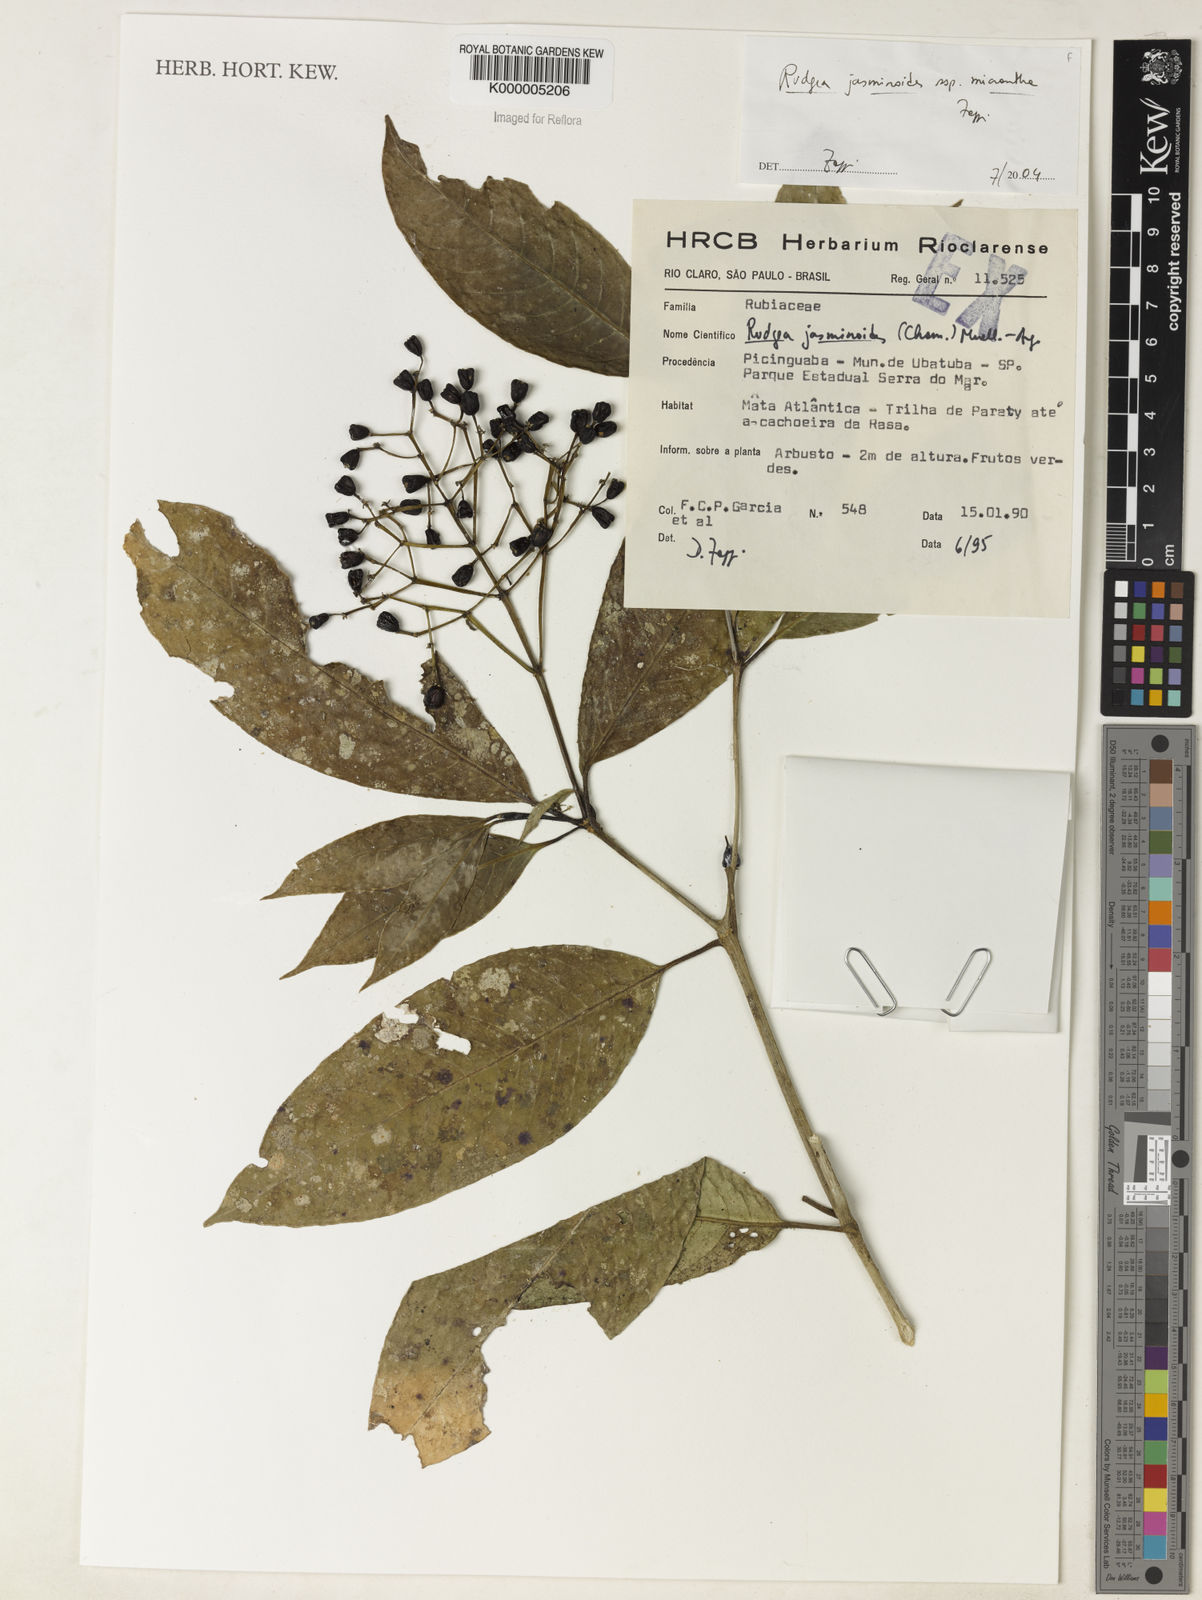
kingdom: Plantae
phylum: Tracheophyta
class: Magnoliopsida
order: Gentianales
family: Rubiaceae
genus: Rudgea
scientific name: Rudgea jasminoides
